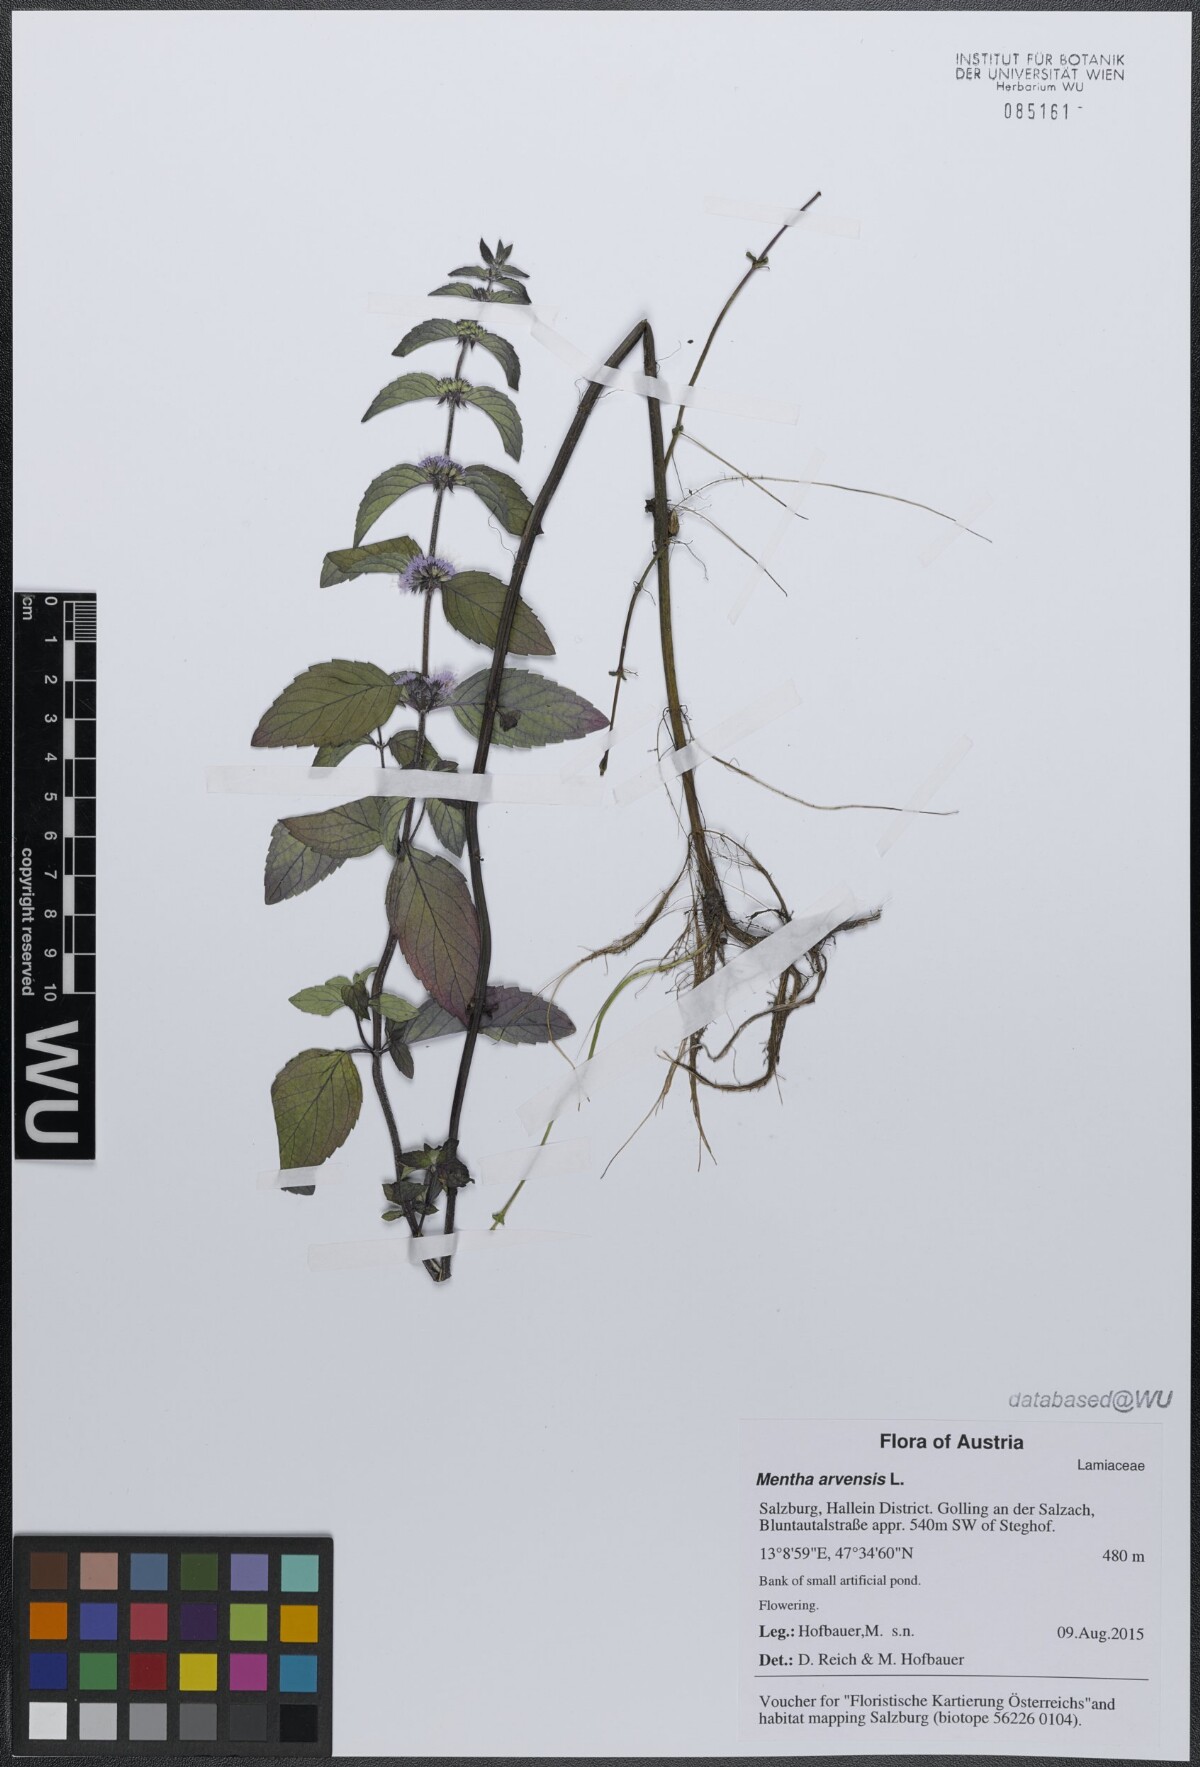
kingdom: Plantae
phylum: Tracheophyta
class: Magnoliopsida
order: Lamiales
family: Lamiaceae
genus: Mentha
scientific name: Mentha arvensis
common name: Corn mint
